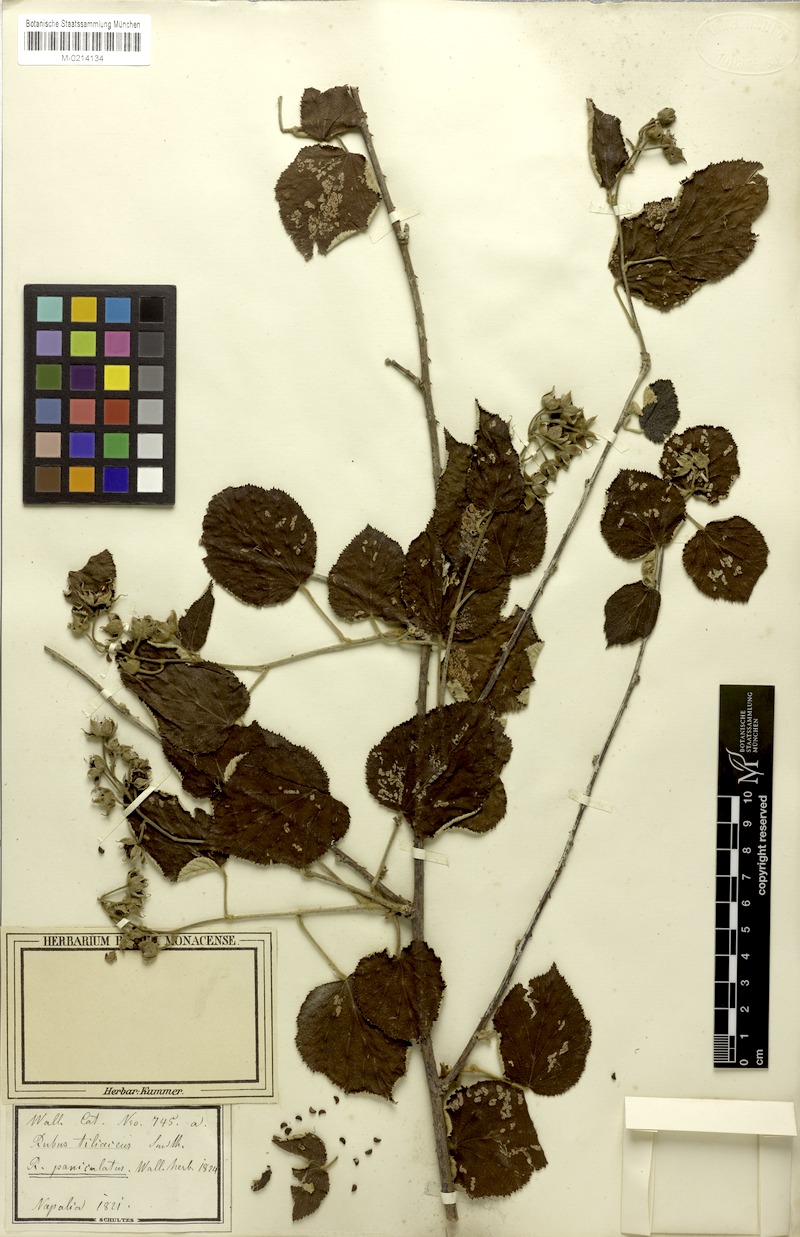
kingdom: Plantae
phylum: Tracheophyta
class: Magnoliopsida
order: Rosales
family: Rosaceae
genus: Rubus
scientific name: Rubus paniculatus
